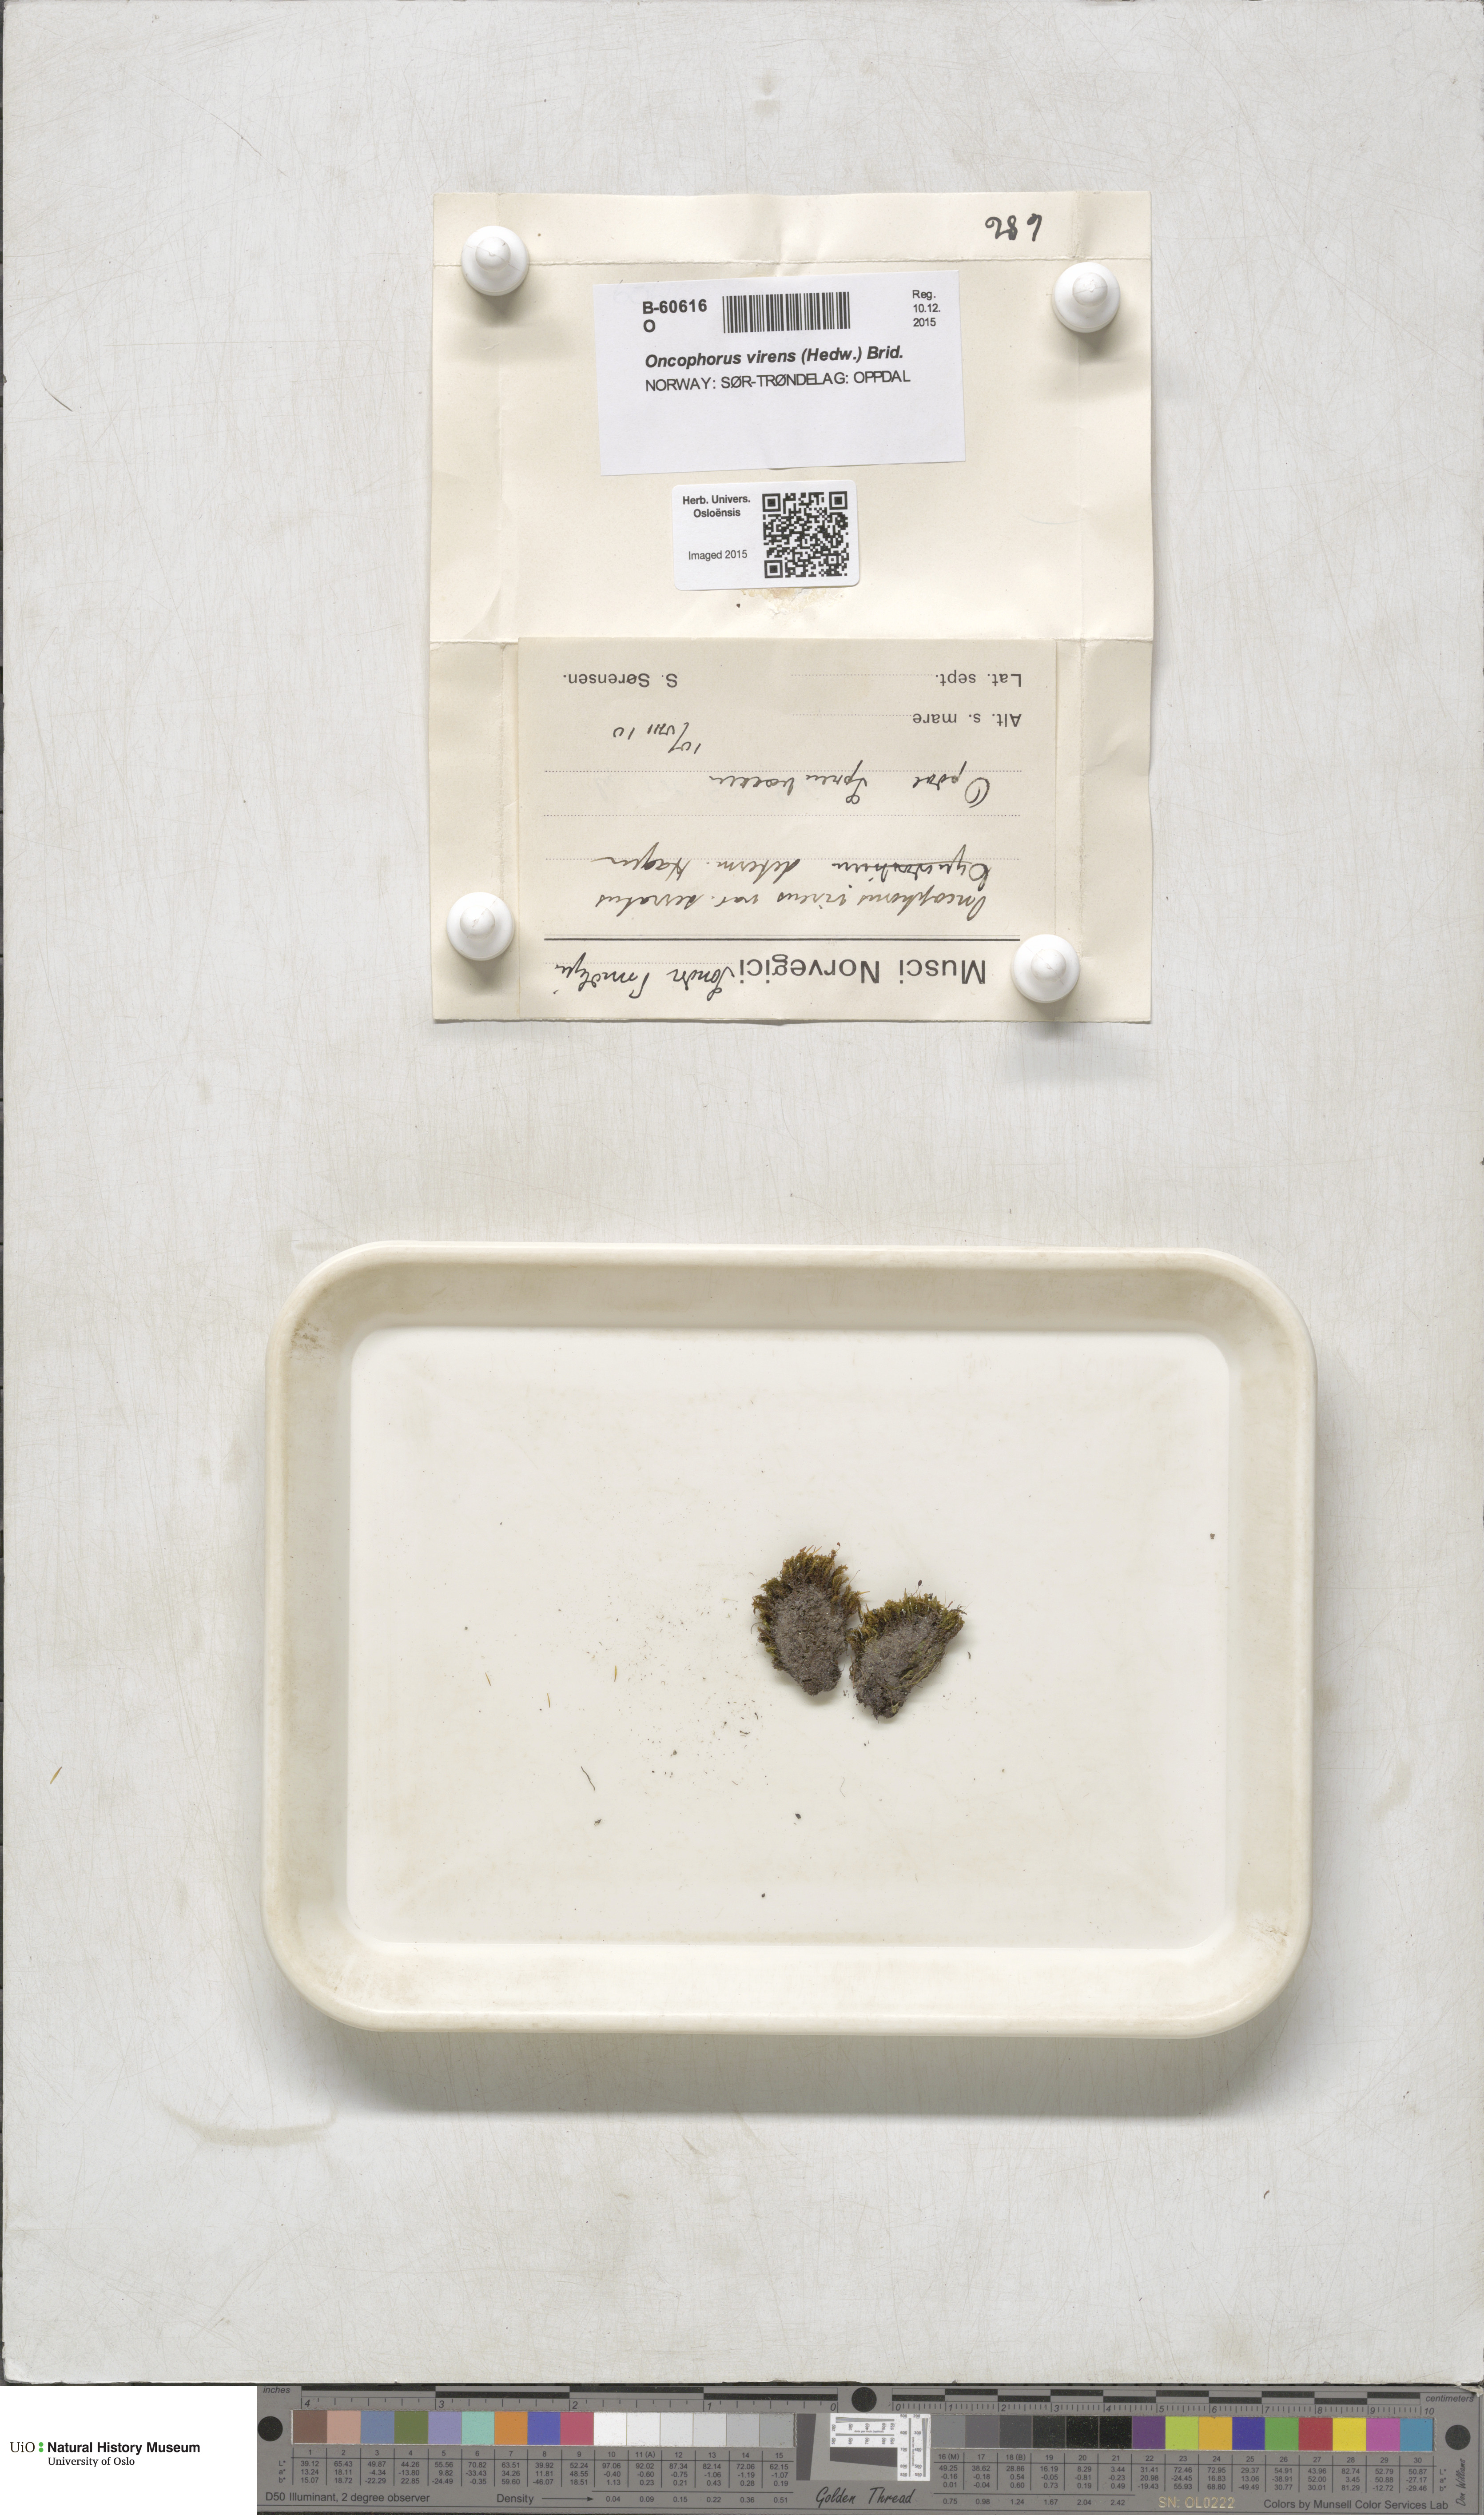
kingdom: Plantae
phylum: Bryophyta
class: Bryopsida
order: Dicranales
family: Rhabdoweisiaceae
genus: Oncophorus
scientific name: Oncophorus virens
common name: Green spur moss
